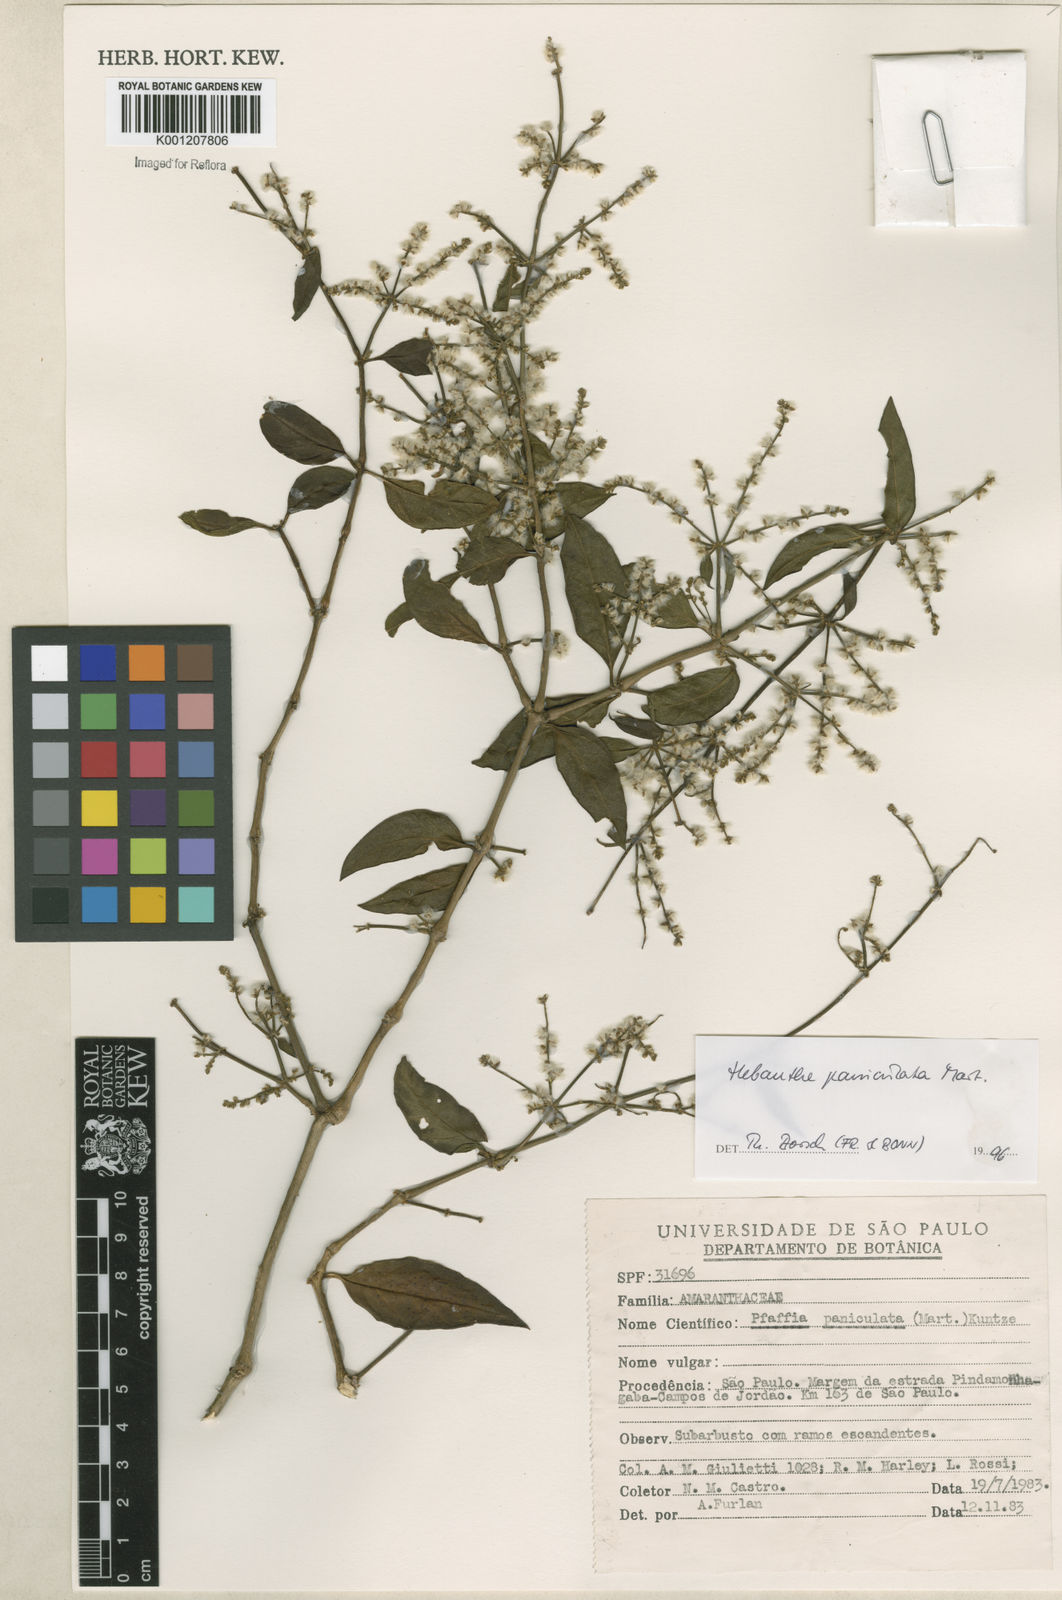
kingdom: Plantae
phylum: Tracheophyta
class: Magnoliopsida
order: Caryophyllales
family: Amaranthaceae
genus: Hebanthe
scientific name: Hebanthe erianthos
